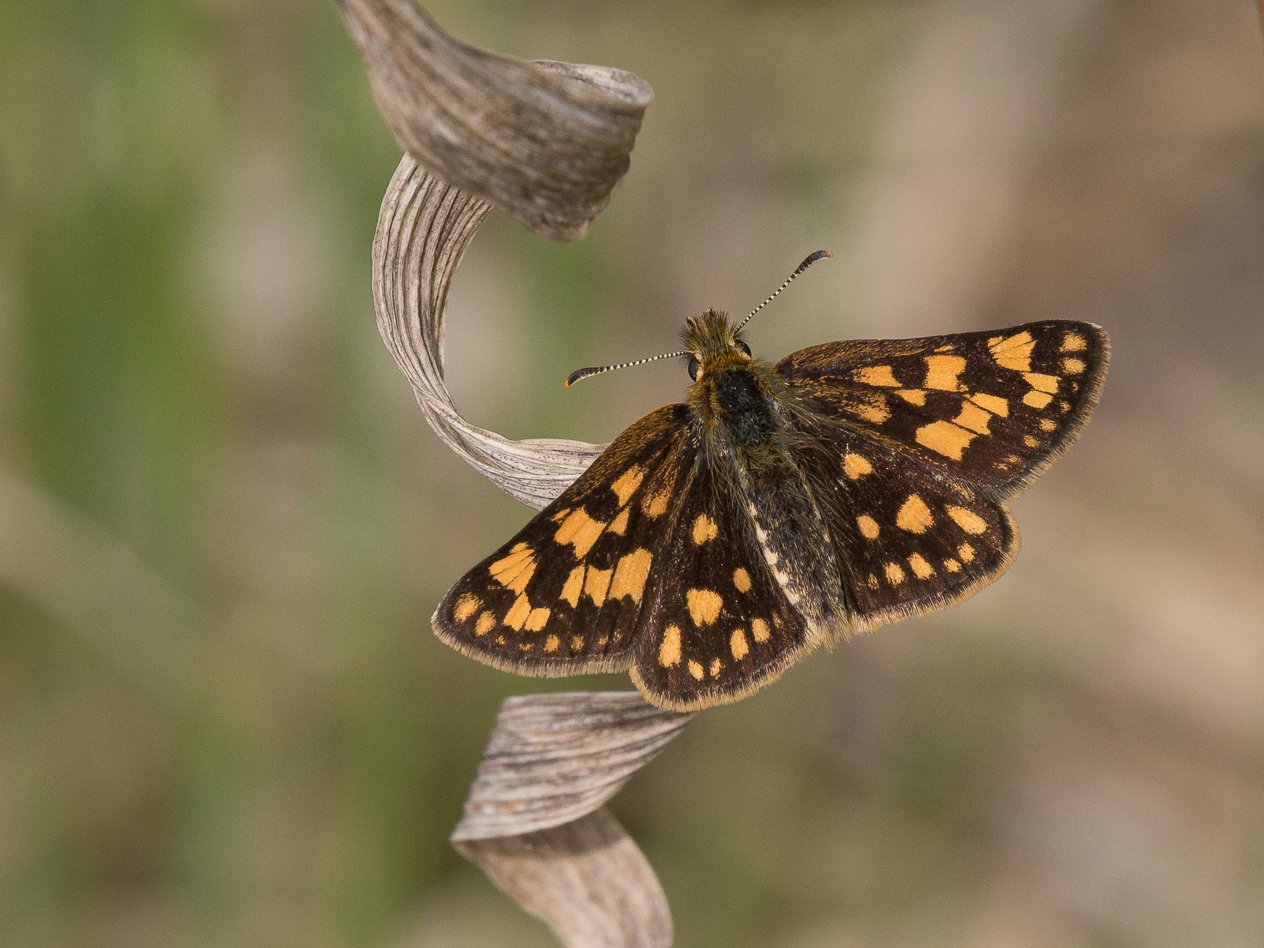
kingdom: Animalia
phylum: Arthropoda
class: Insecta
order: Lepidoptera
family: Hesperiidae
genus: Carterocephalus
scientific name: Carterocephalus palaemon
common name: Chequered Skipper
